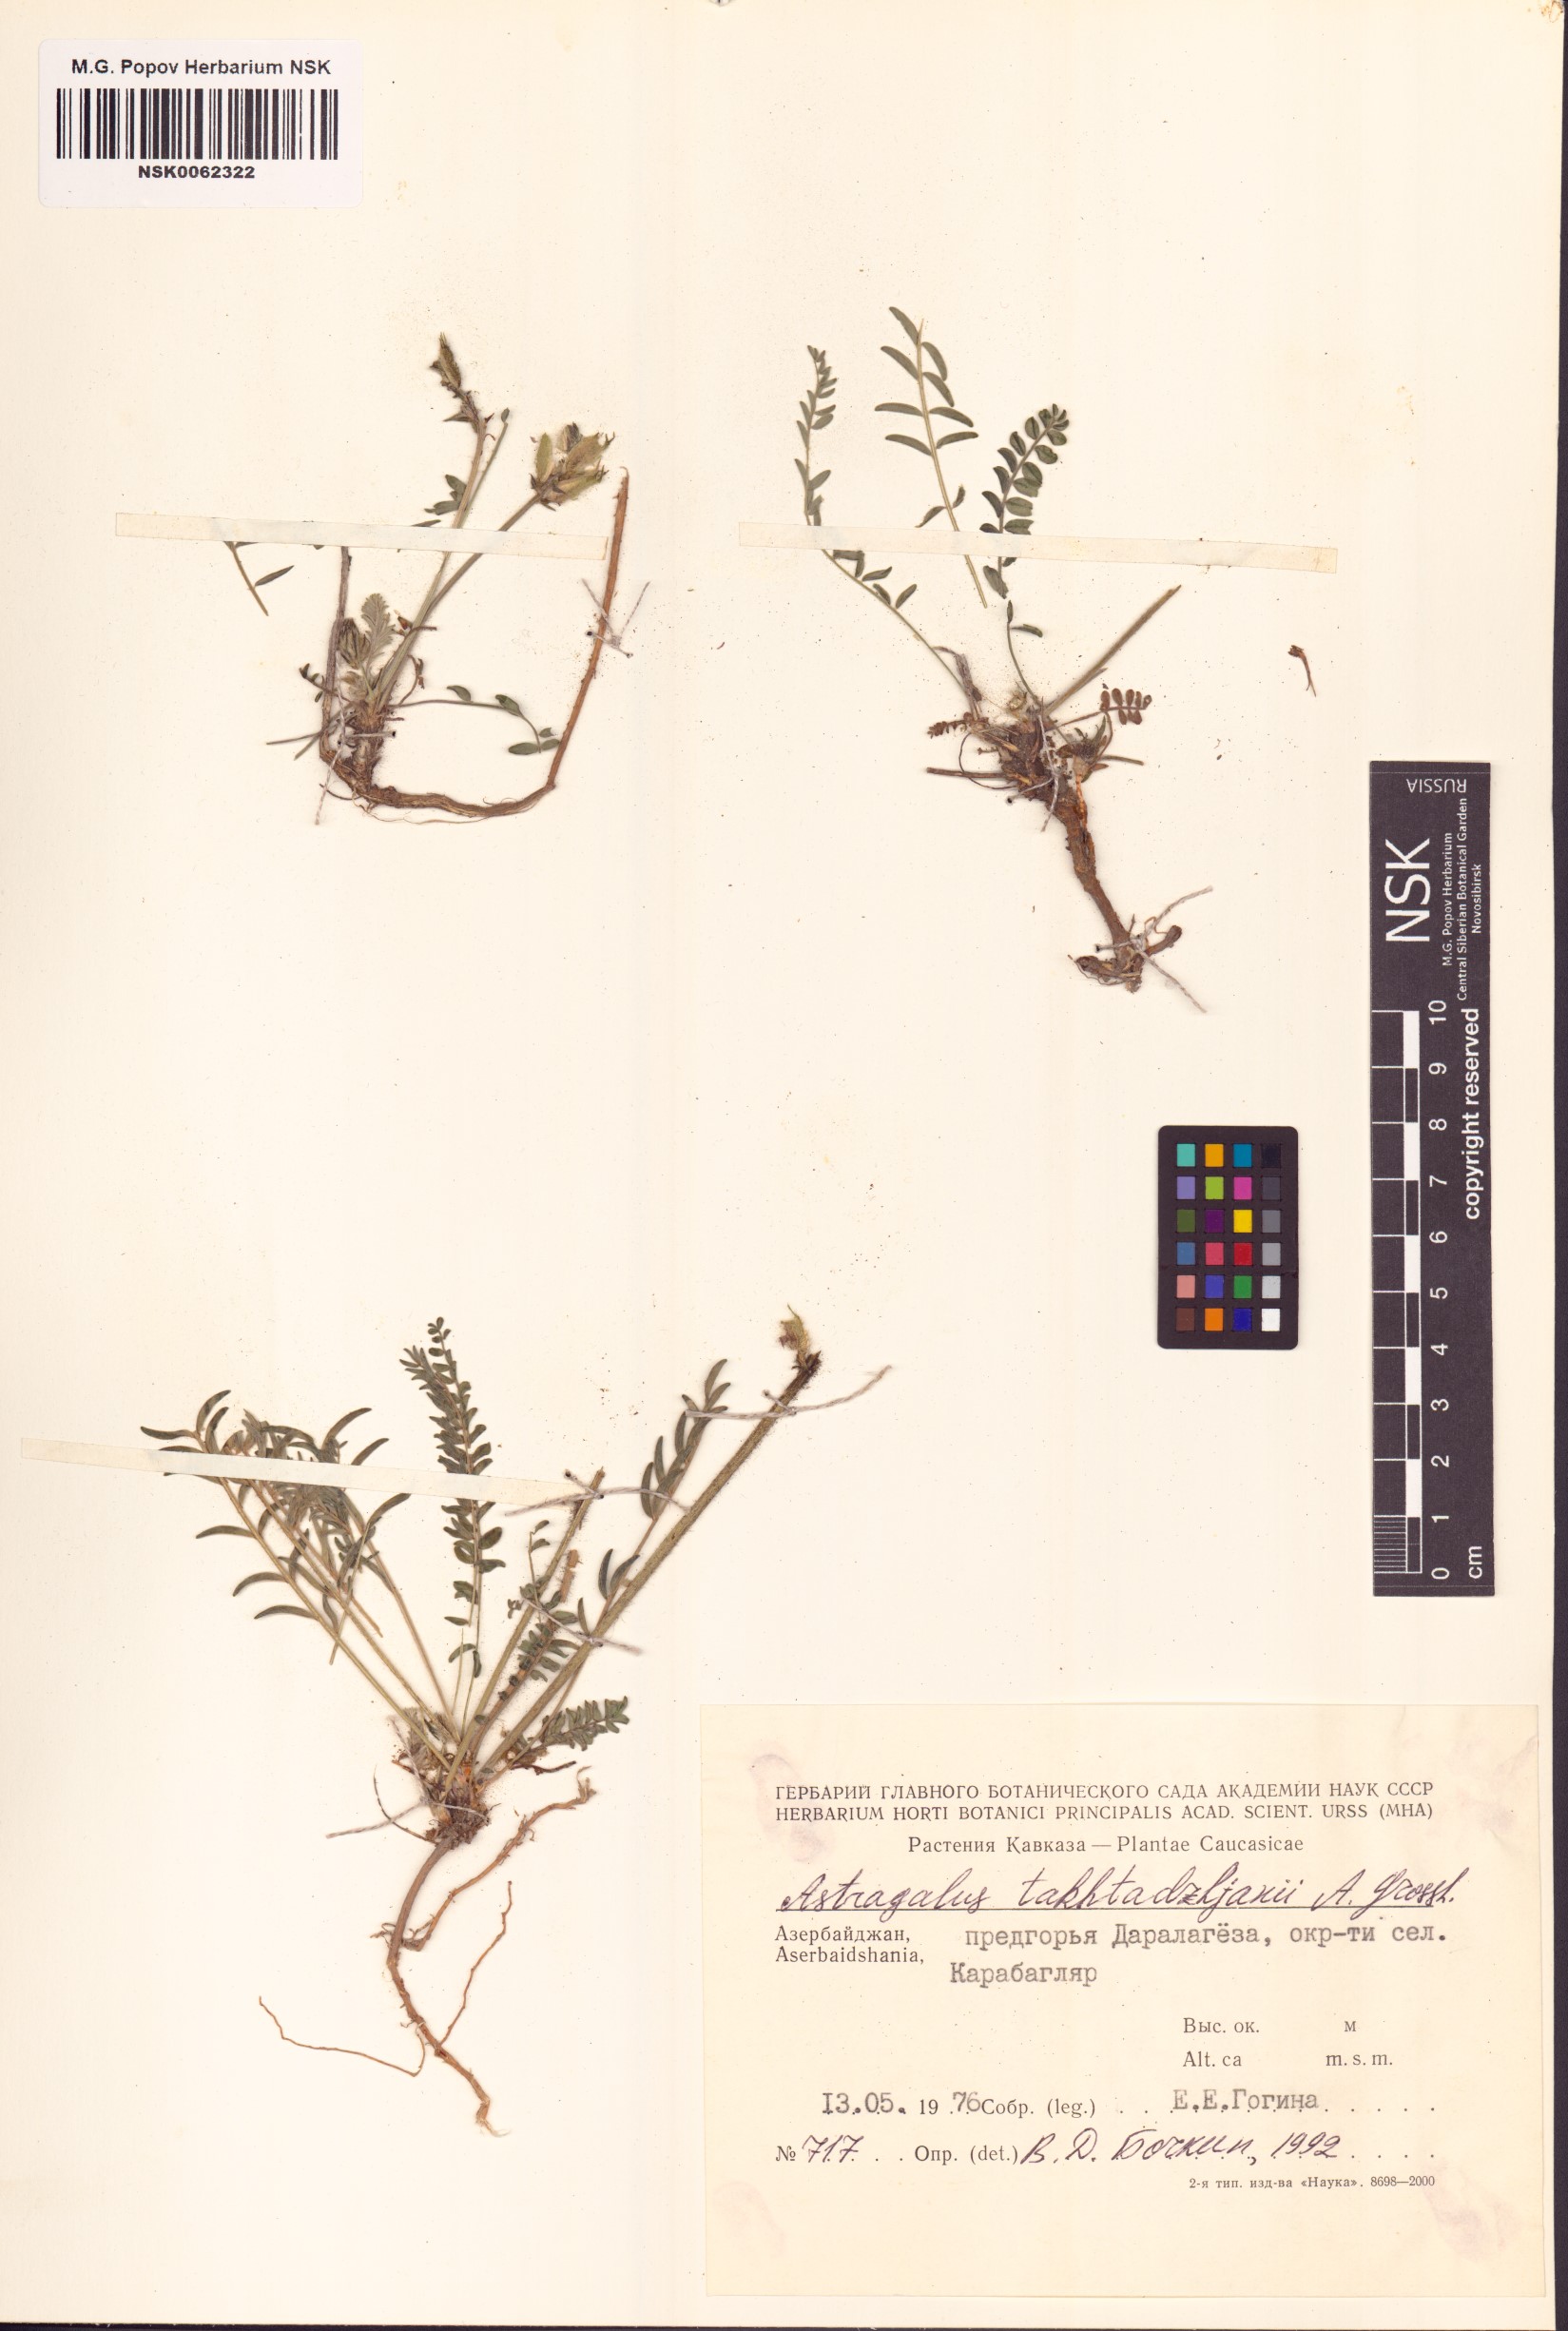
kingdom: Plantae
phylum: Tracheophyta
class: Magnoliopsida
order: Fabales
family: Fabaceae
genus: Astragalus
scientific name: Astragalus takhtadzhjanii
